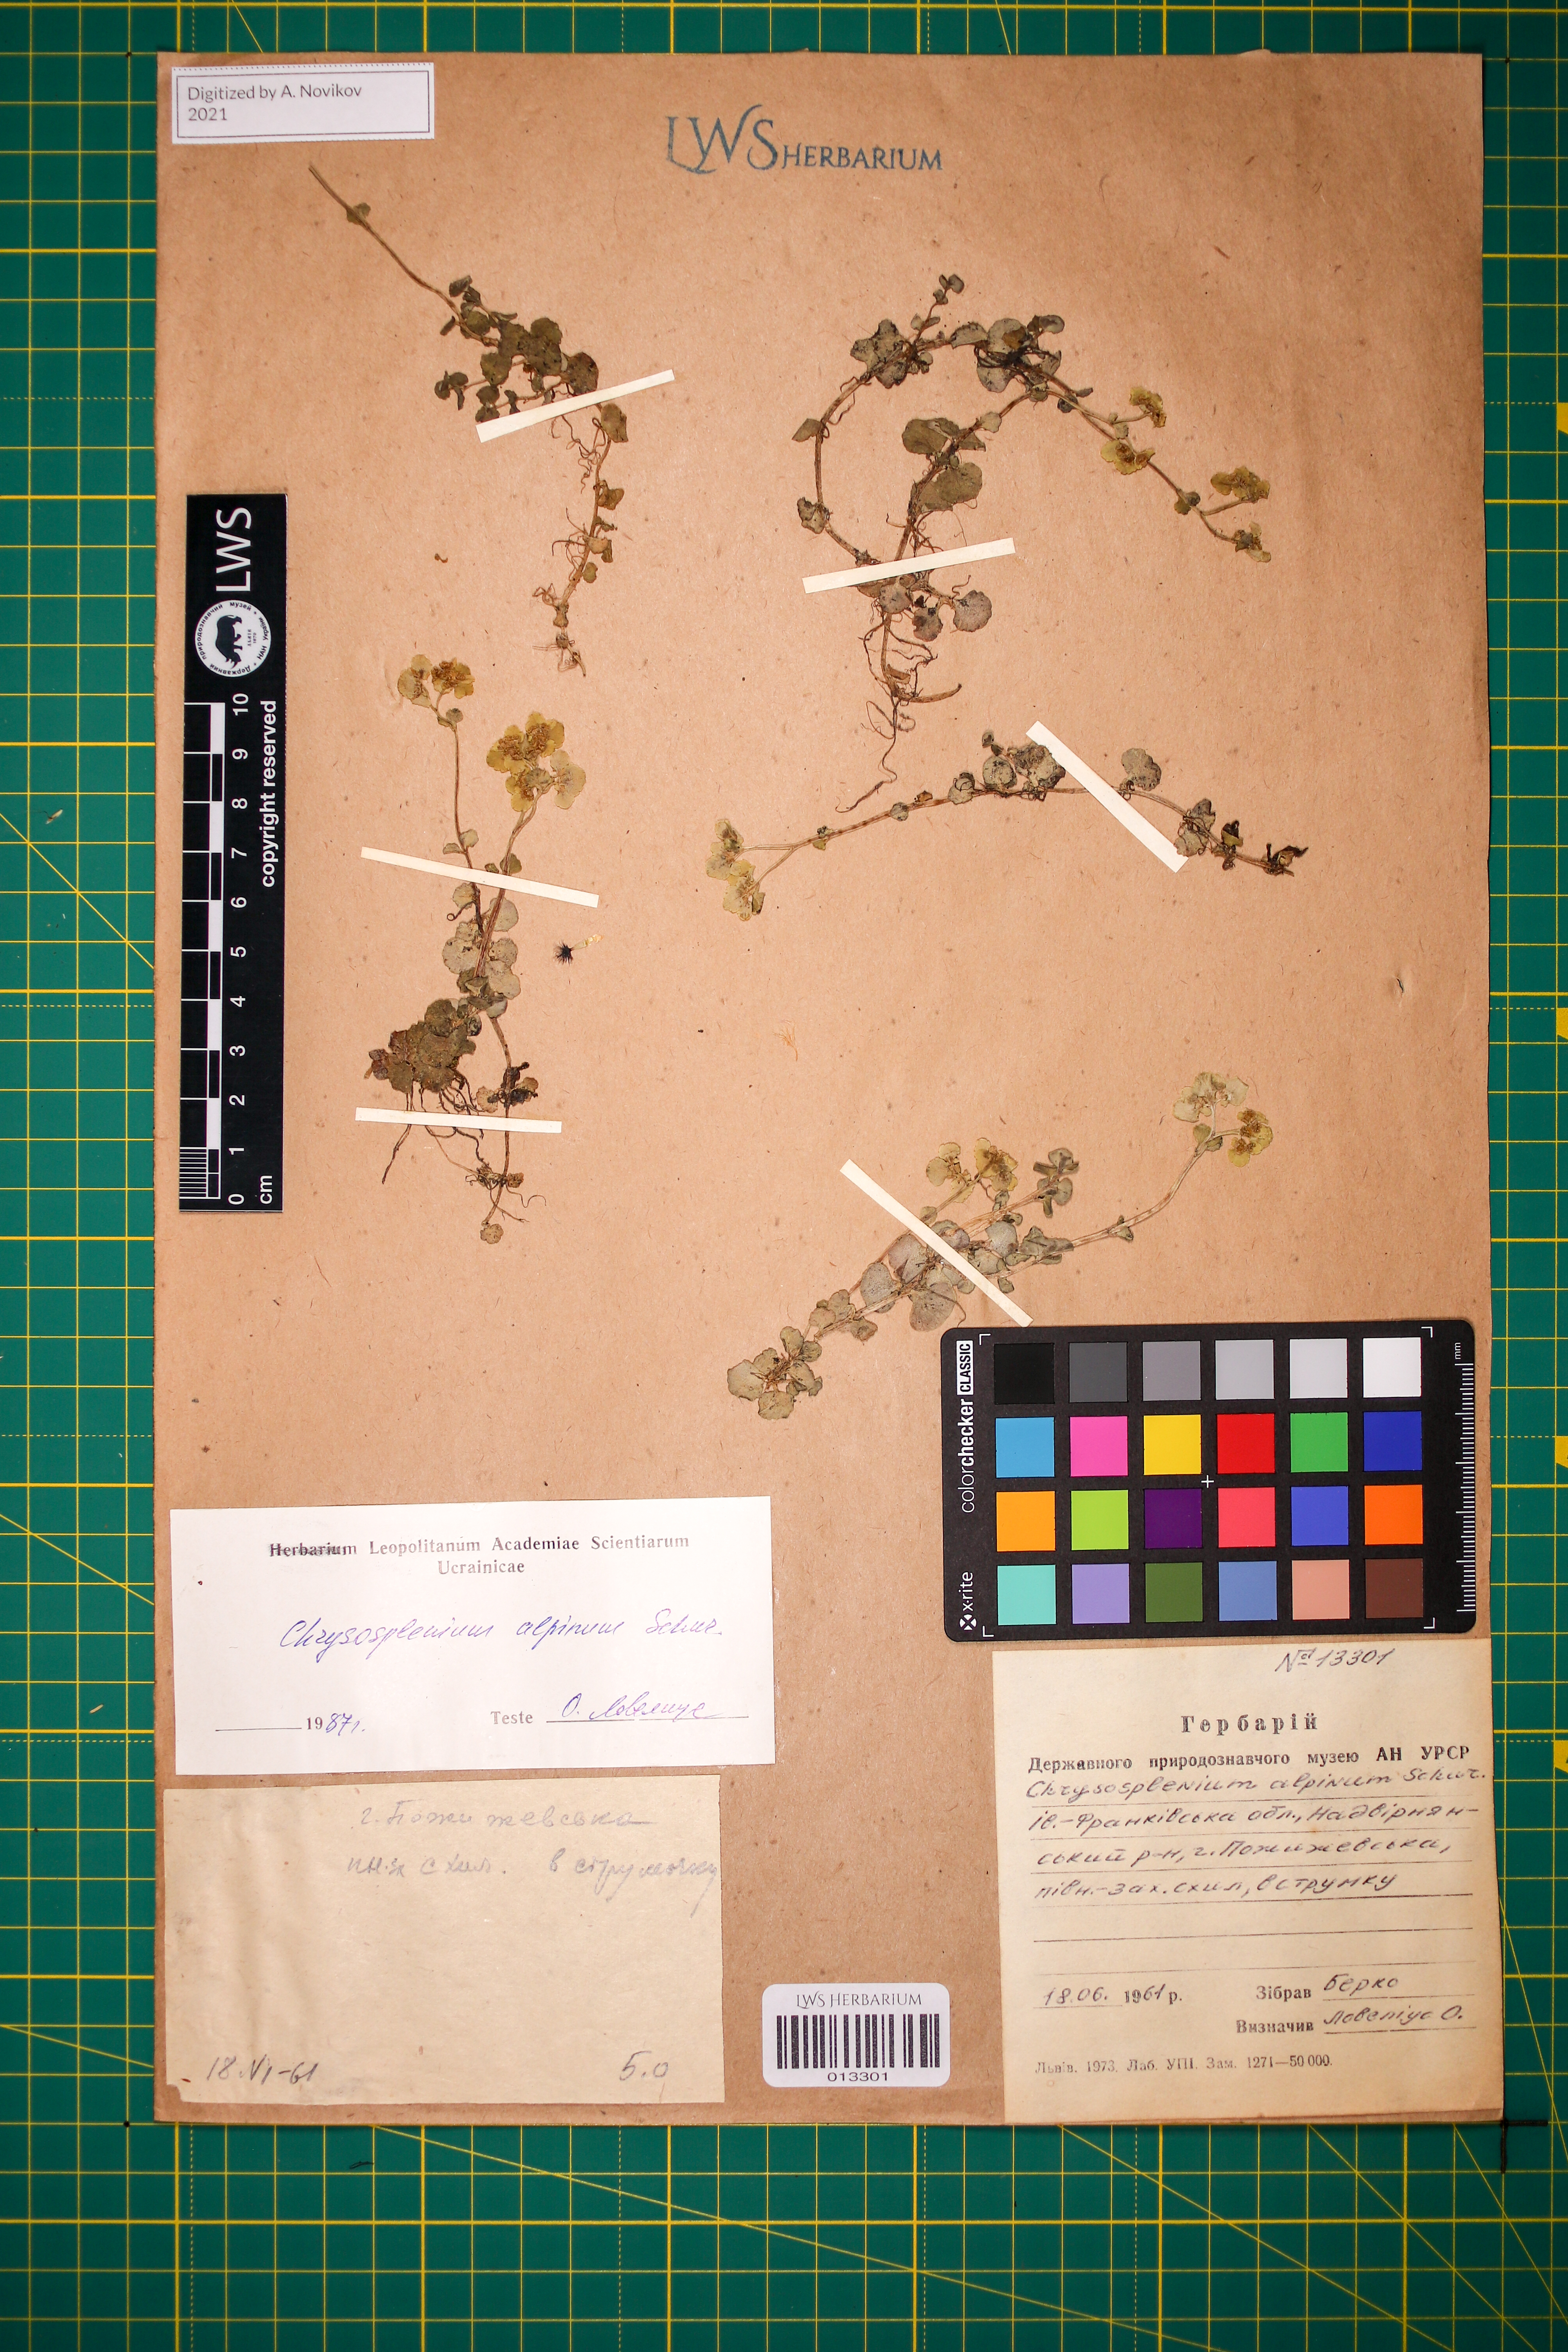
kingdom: Plantae
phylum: Tracheophyta
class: Magnoliopsida
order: Saxifragales
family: Saxifragaceae
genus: Chrysosplenium
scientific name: Chrysosplenium alpinum
